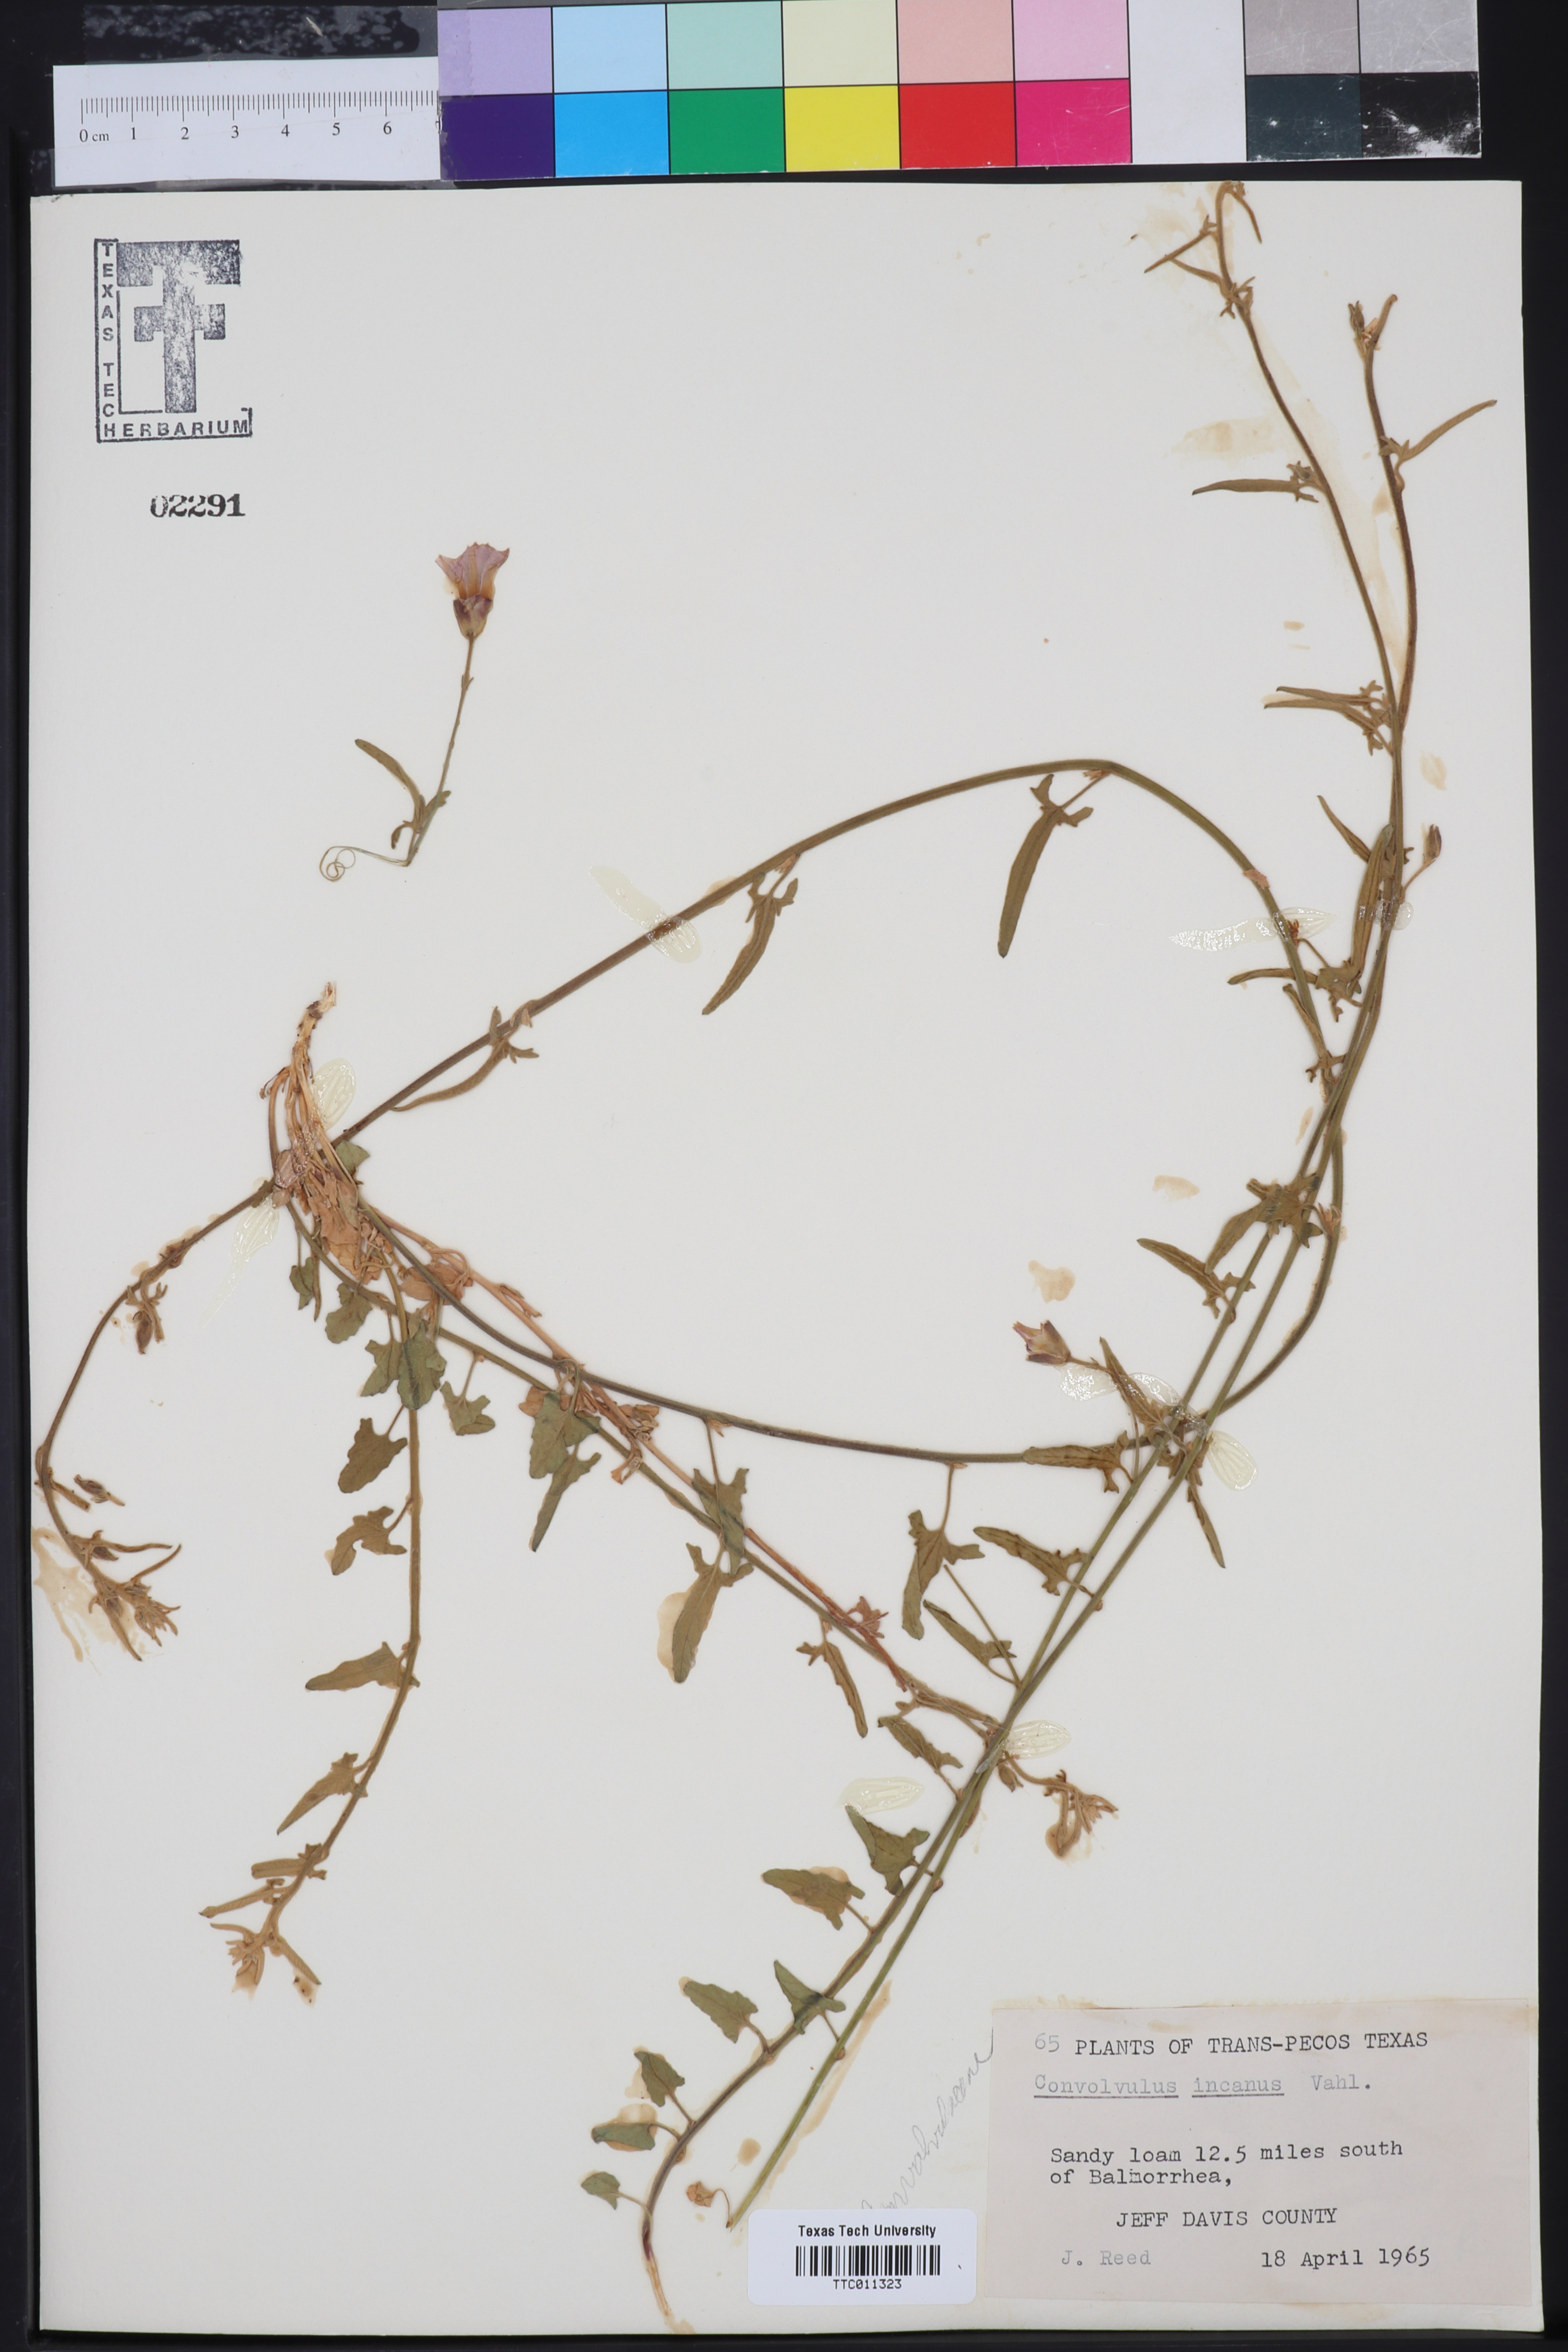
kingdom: Plantae
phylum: Tracheophyta
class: Magnoliopsida
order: Solanales
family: Convolvulaceae
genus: Convolvulus
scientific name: Convolvulus hermanniae
